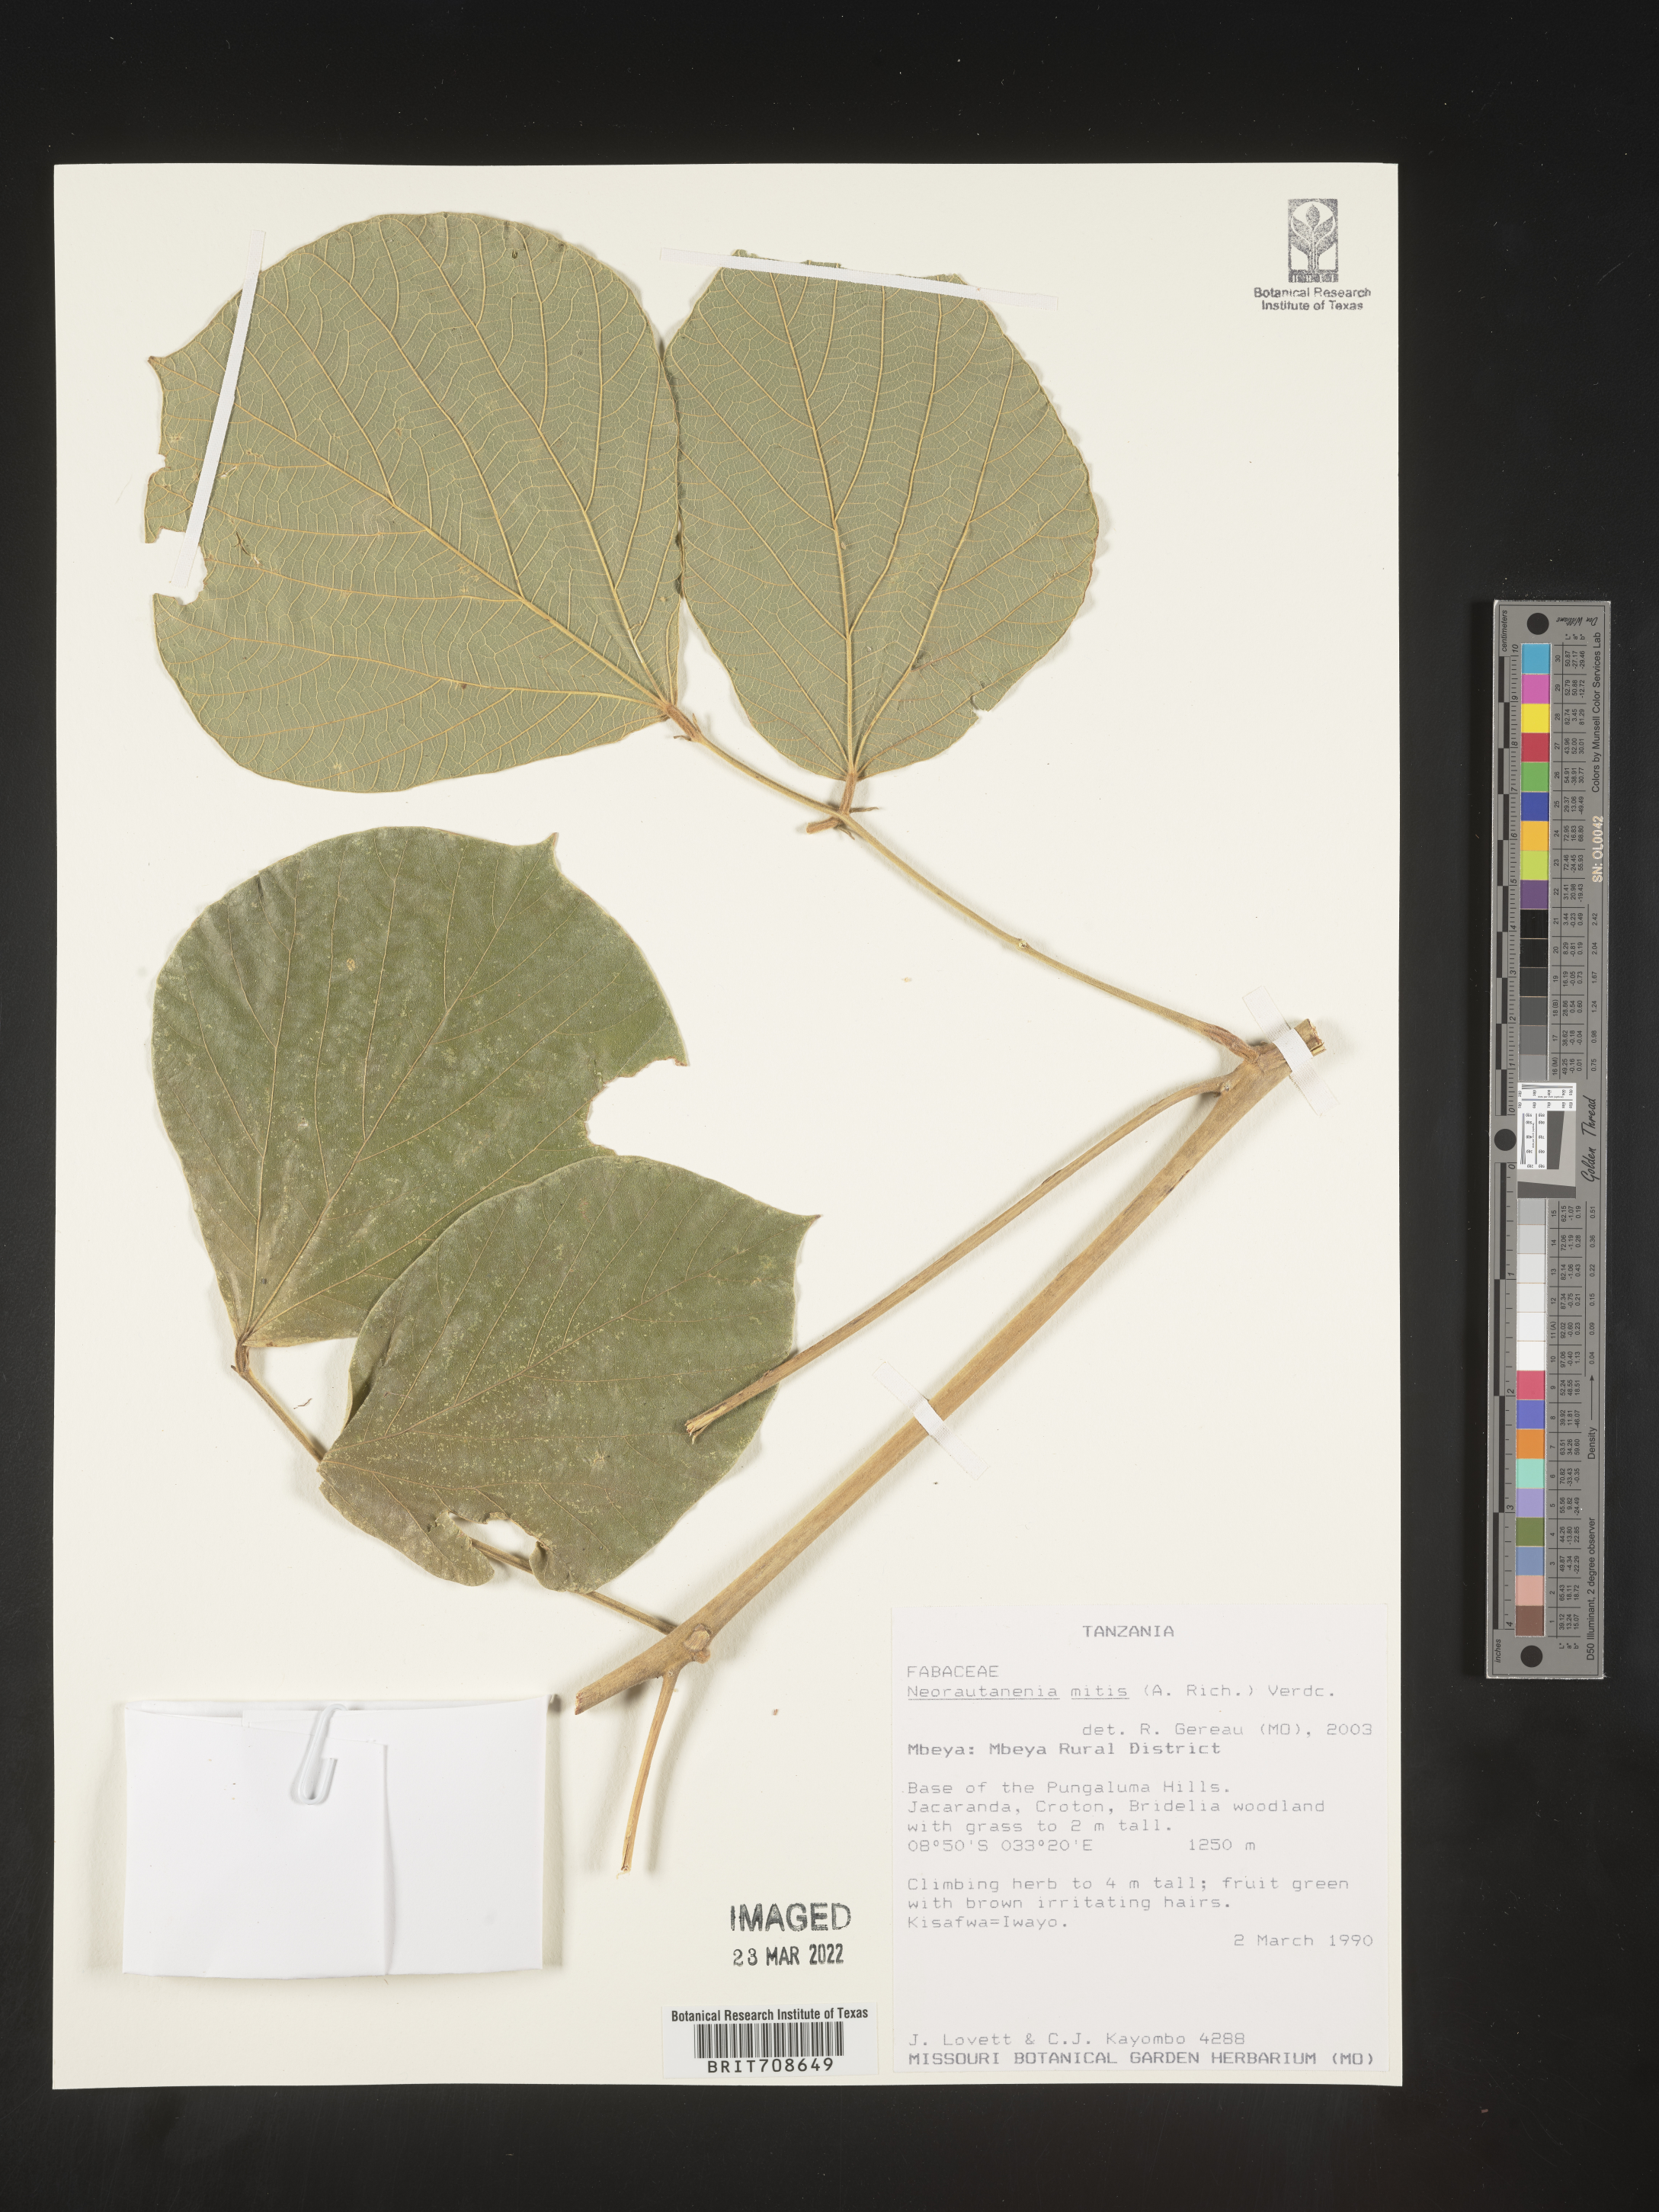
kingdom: Plantae
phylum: Tracheophyta
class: Magnoliopsida
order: Fabales
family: Fabaceae
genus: Neorautanenia
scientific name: Neorautanenia
